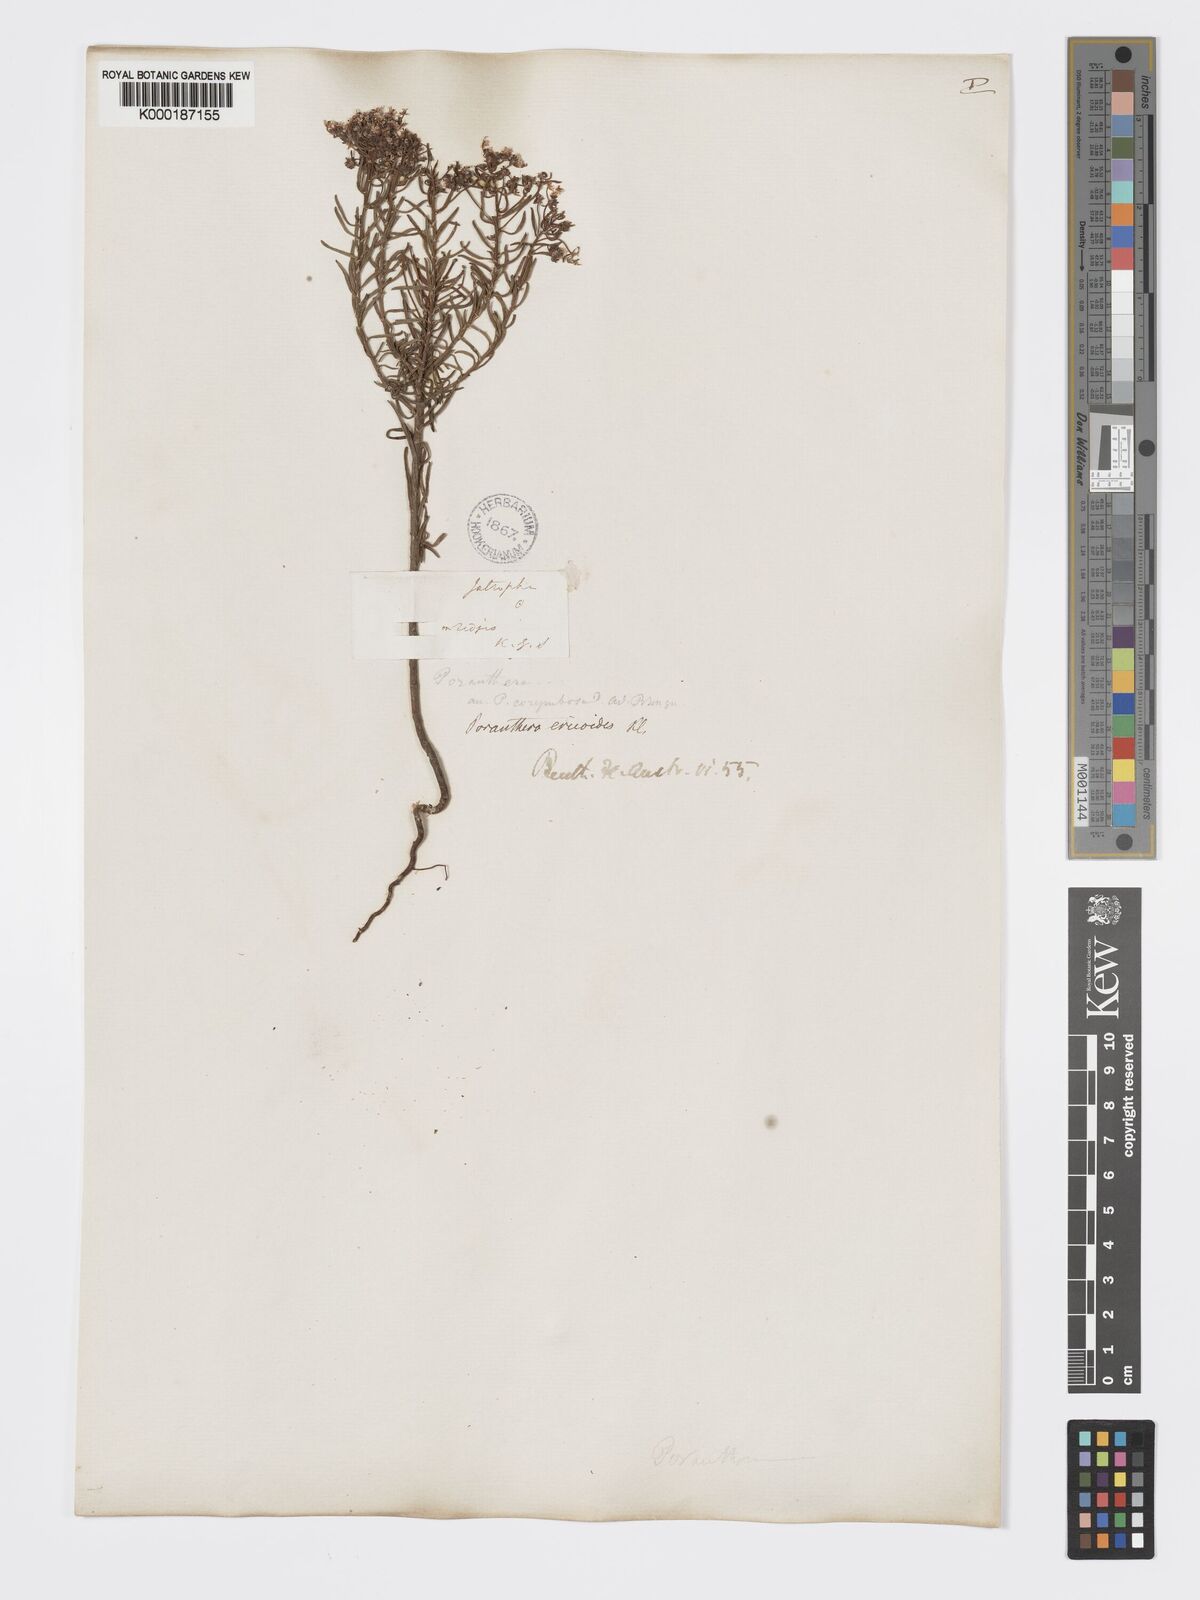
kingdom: Plantae
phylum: Tracheophyta
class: Magnoliopsida
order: Malpighiales
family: Phyllanthaceae
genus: Poranthera
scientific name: Poranthera ericoides
